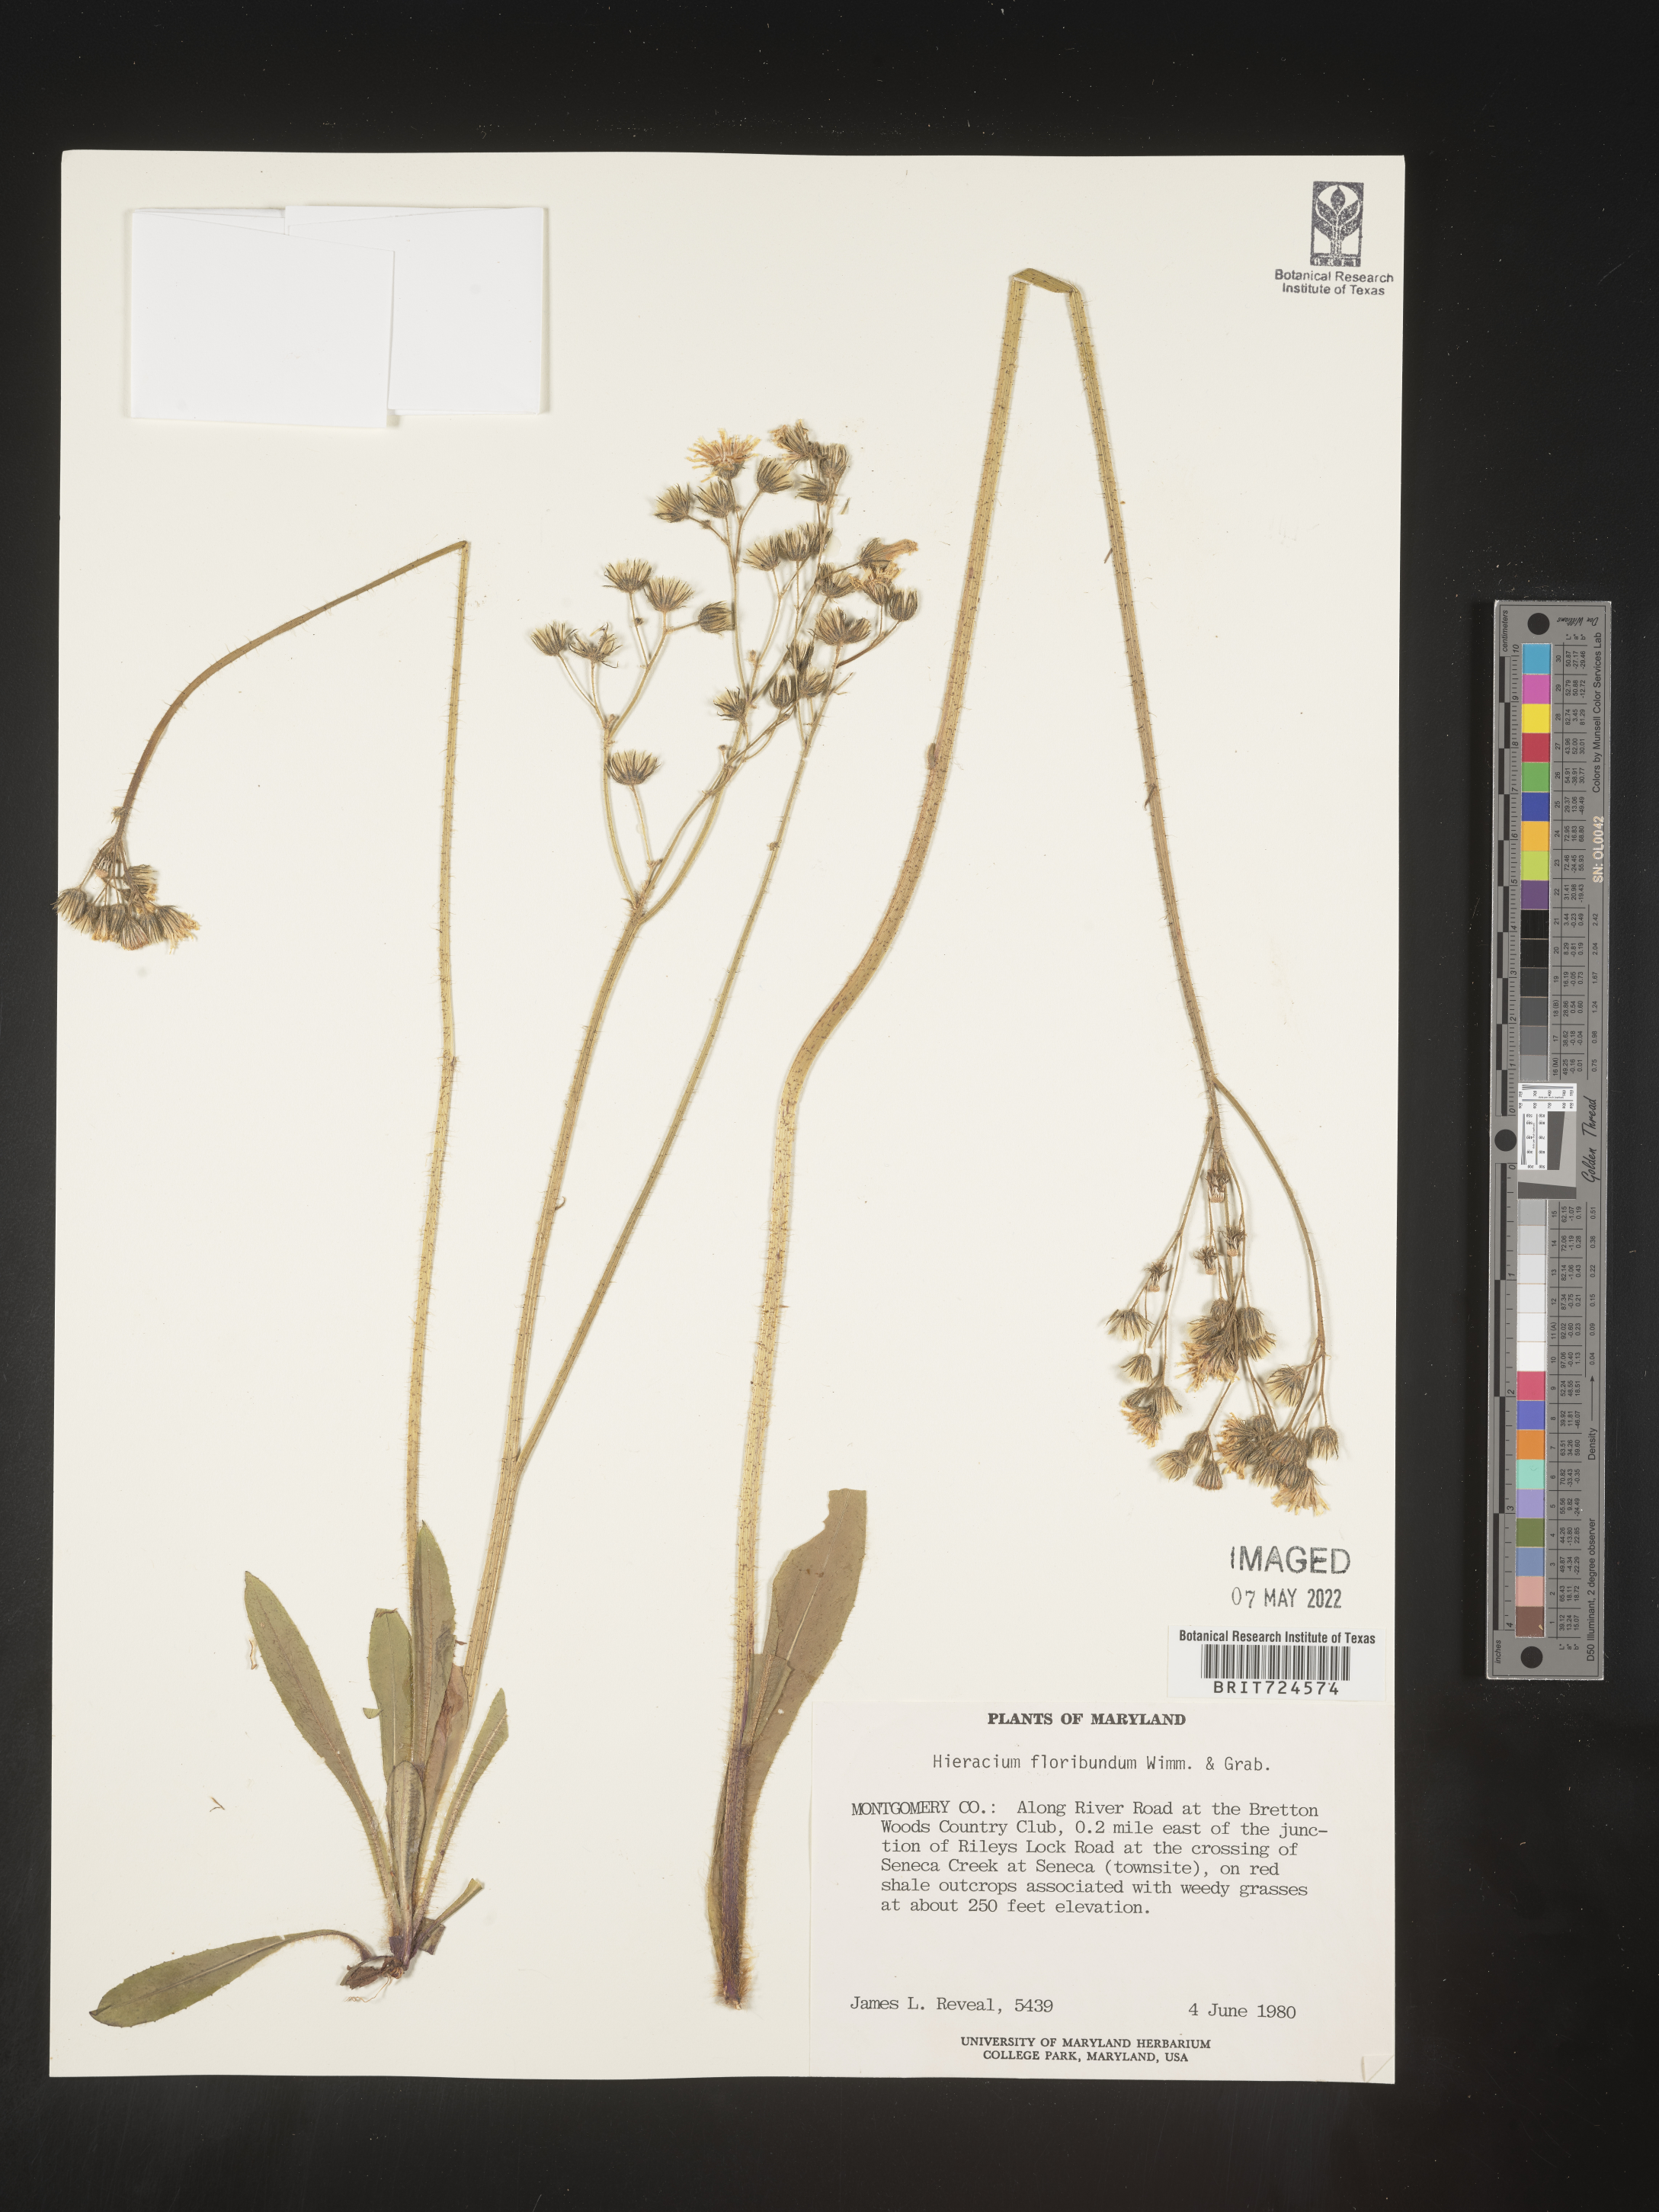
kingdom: Plantae
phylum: Tracheophyta
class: Magnoliopsida
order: Asterales
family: Asteraceae
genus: Pilosella
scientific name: Pilosella floribunda
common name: Glaucous hawkweed
